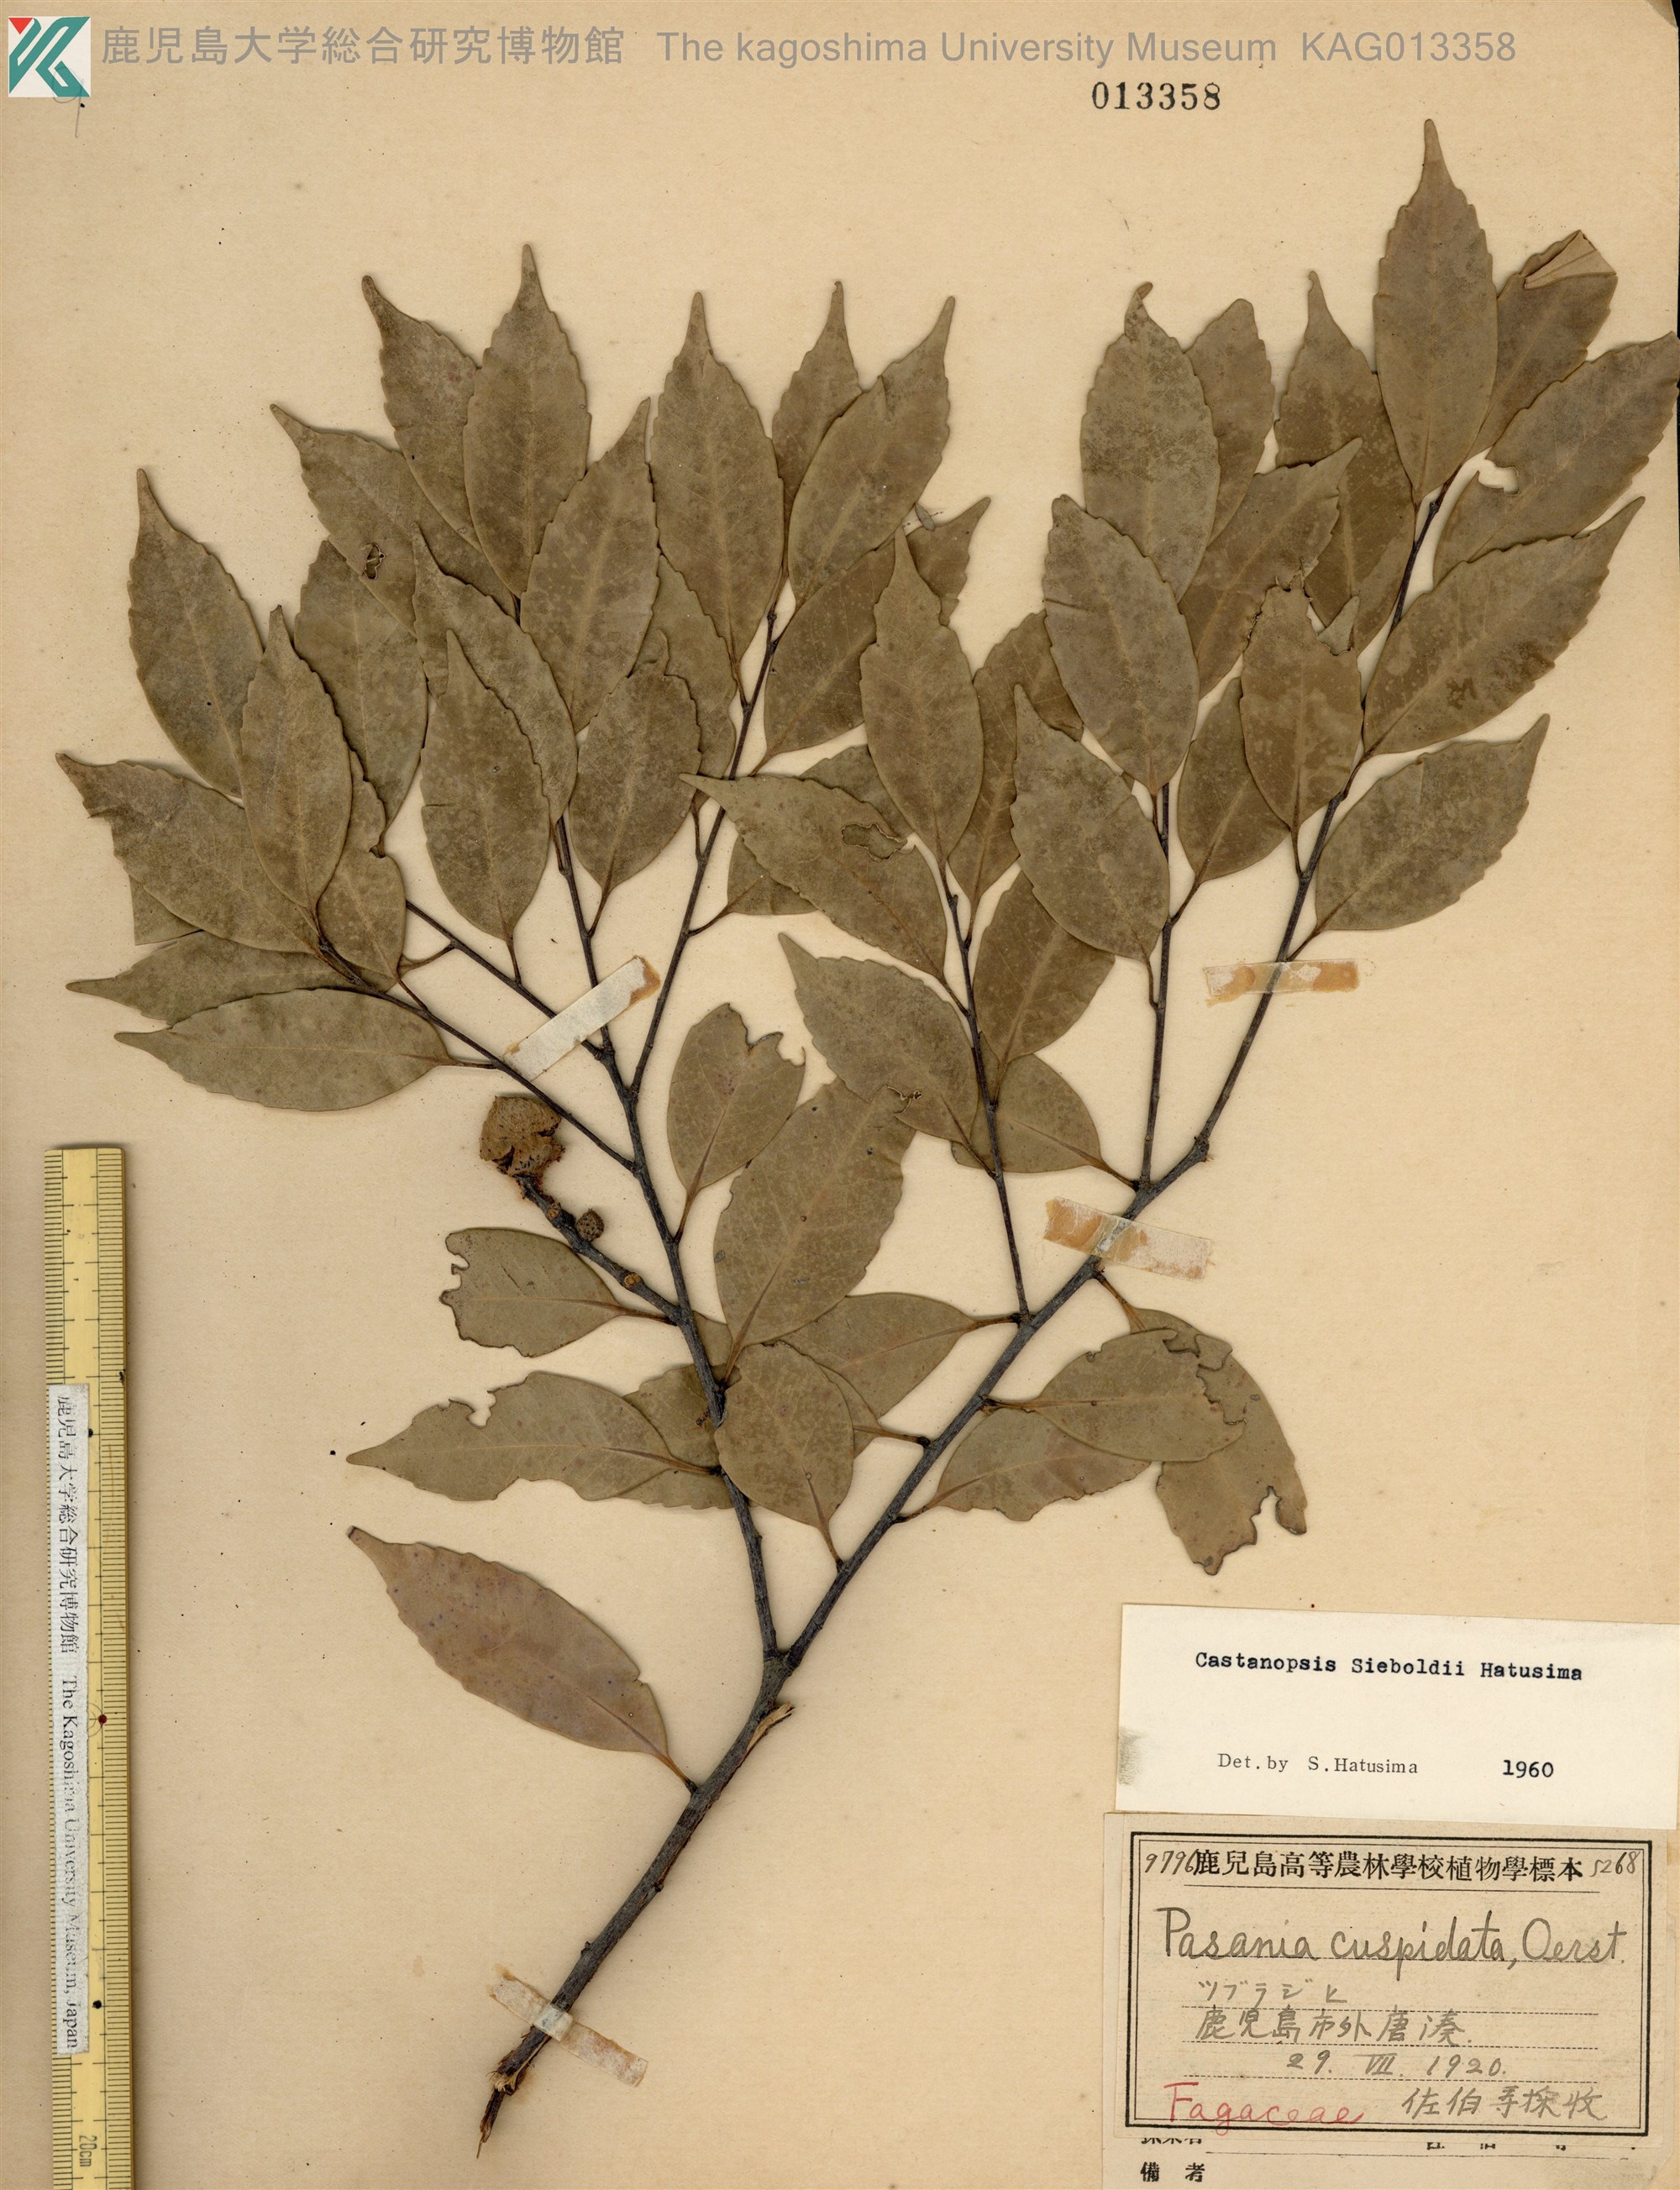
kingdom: Plantae
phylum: Tracheophyta
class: Magnoliopsida
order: Fagales
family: Fagaceae
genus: Castanopsis
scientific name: Castanopsis sieboldii
